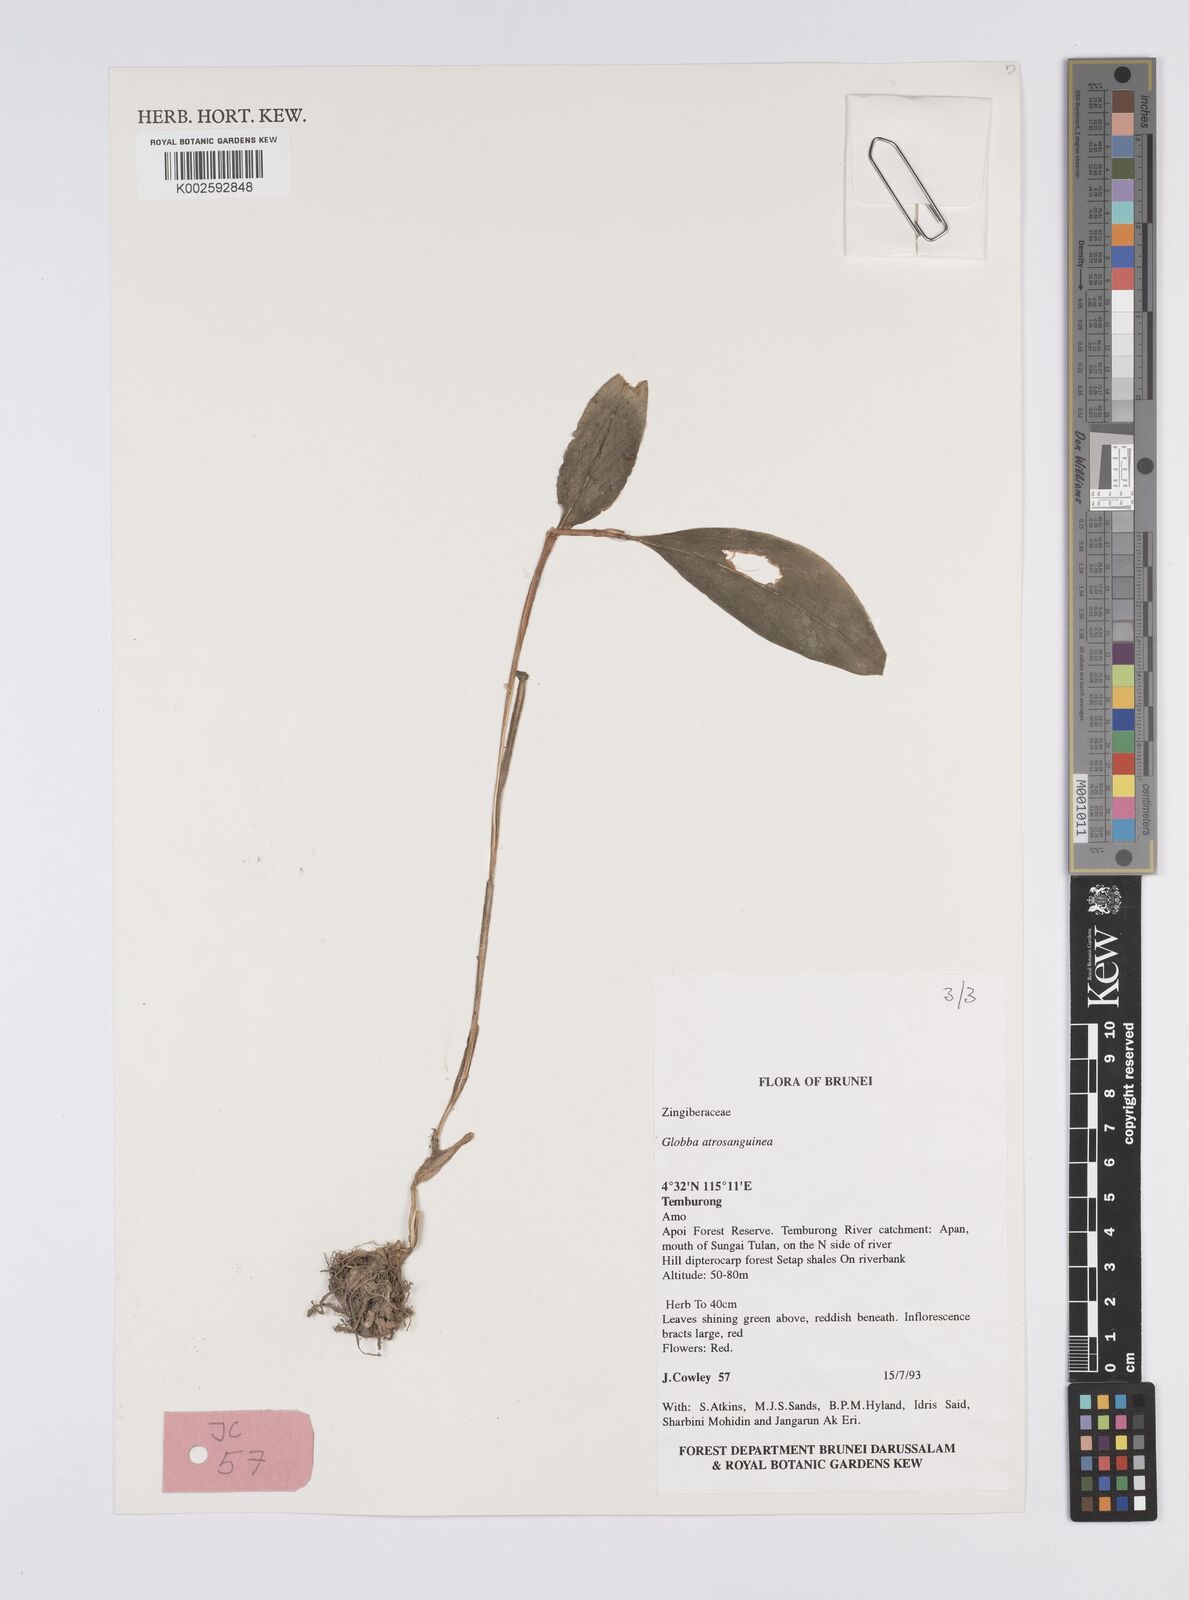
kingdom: Plantae
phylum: Tracheophyta
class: Liliopsida
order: Zingiberales
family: Zingiberaceae
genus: Globba
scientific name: Globba atrosanguinea
